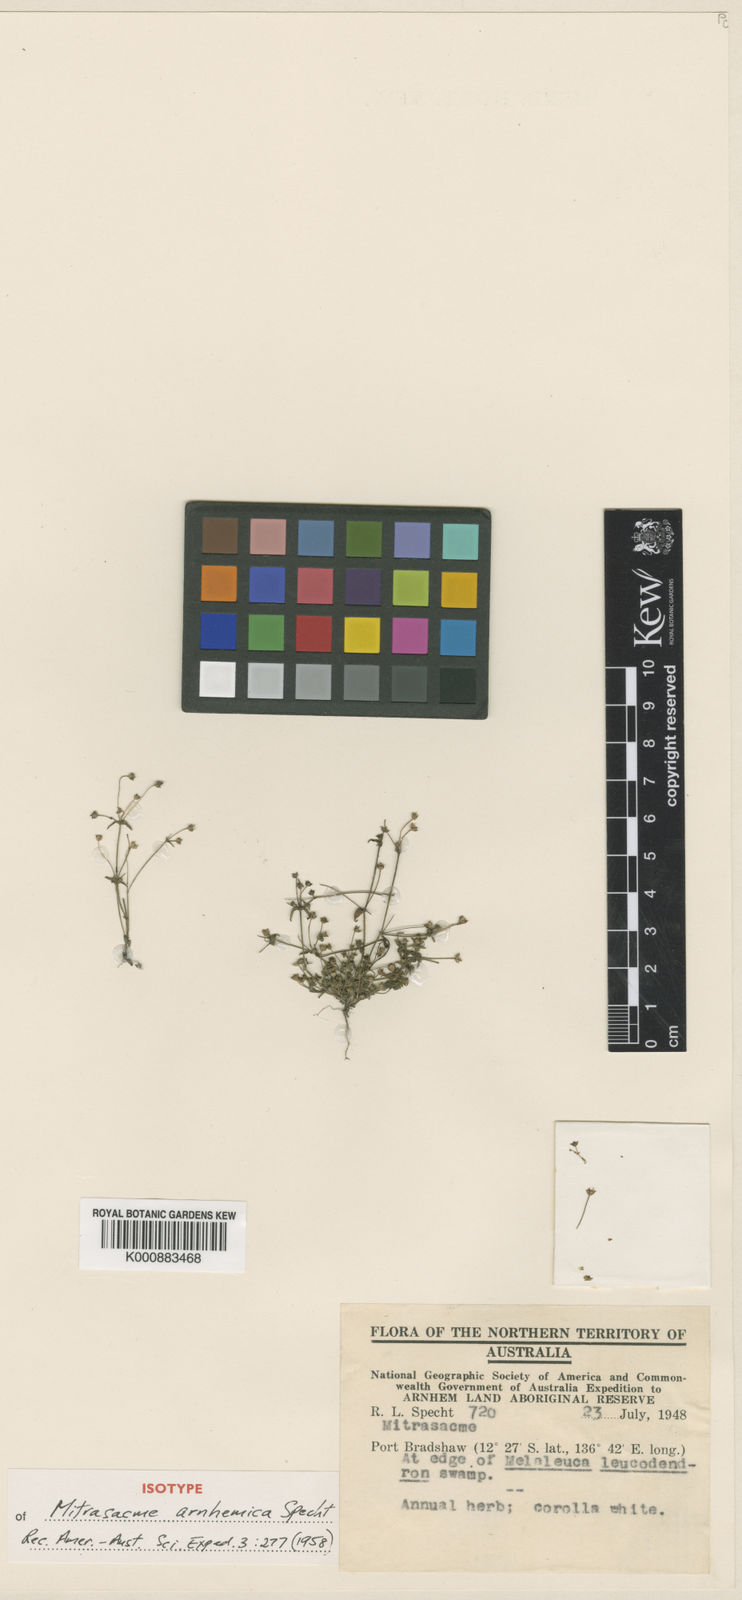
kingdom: Plantae
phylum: Tracheophyta
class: Magnoliopsida
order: Gentianales
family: Loganiaceae
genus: Mitrasacme
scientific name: Mitrasacme nummularia
